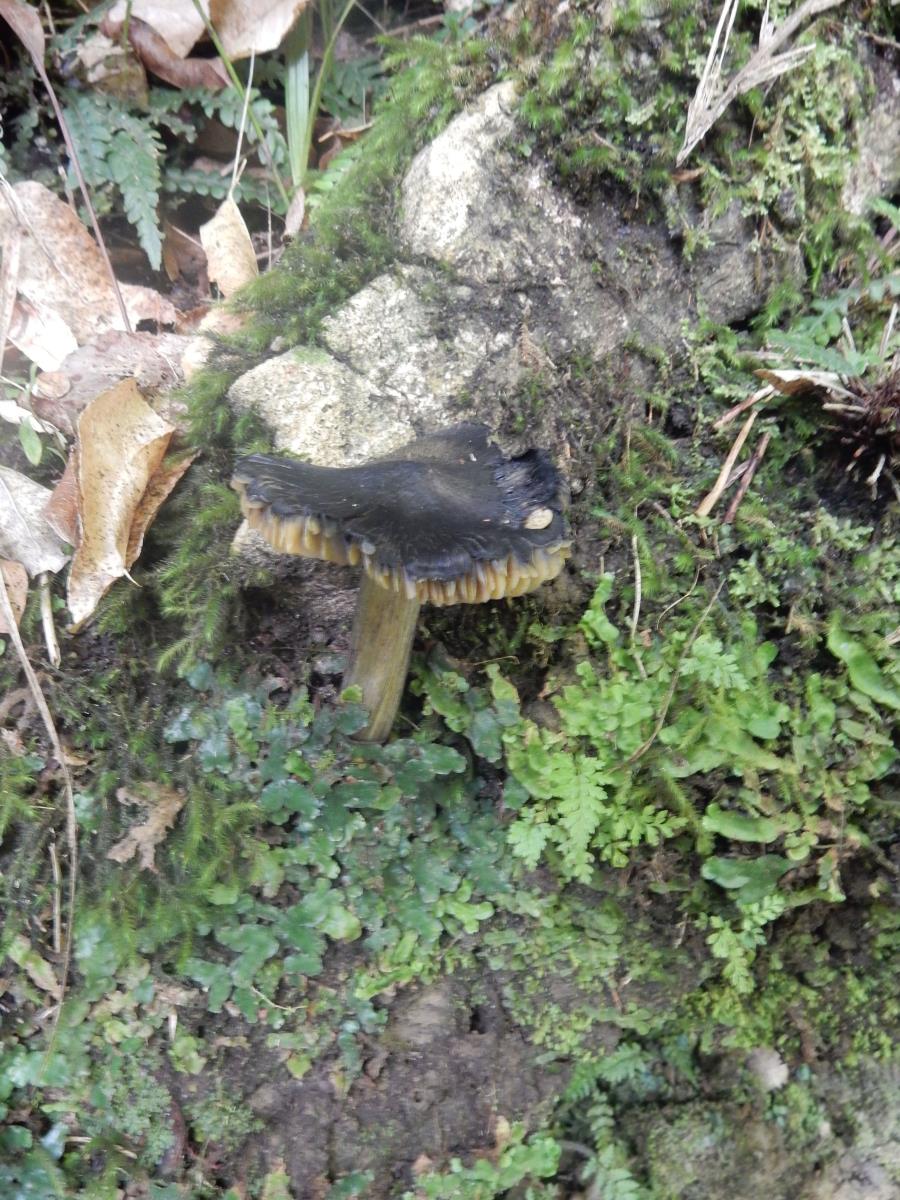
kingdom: Fungi
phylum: Basidiomycota
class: Agaricomycetes
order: Agaricales
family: Hygrophoraceae
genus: Hygrocybe
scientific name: Hygrocybe fuliginata
